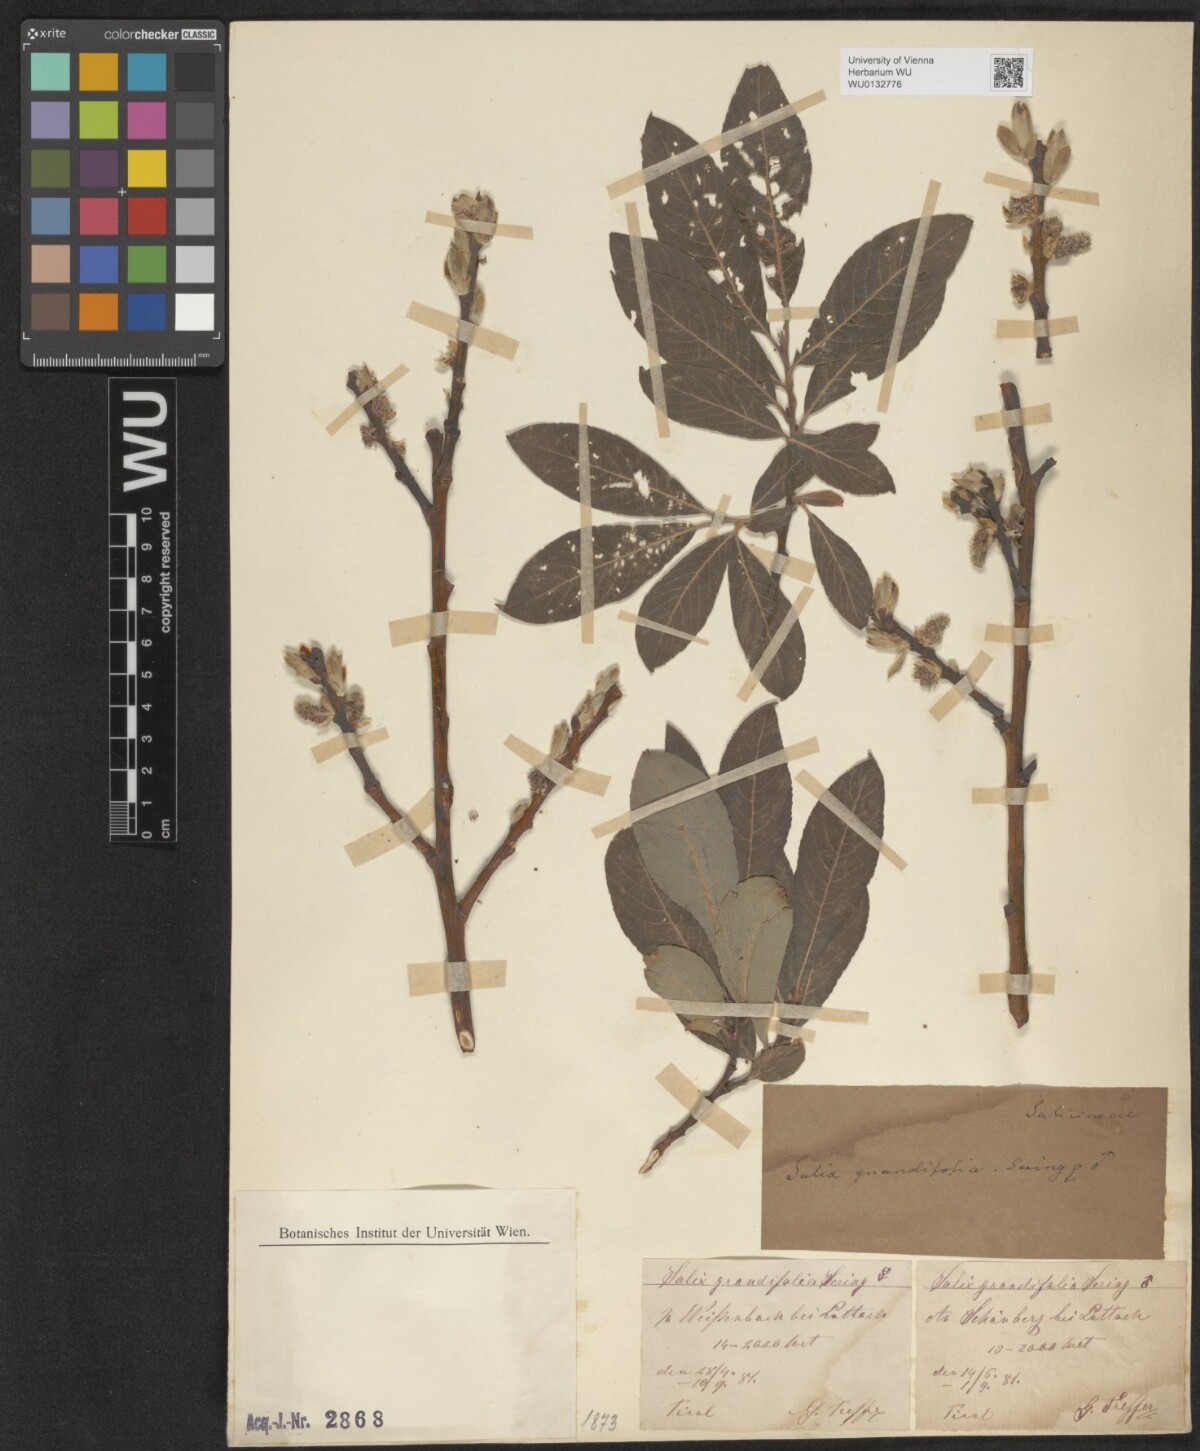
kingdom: Plantae
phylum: Tracheophyta
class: Magnoliopsida
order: Malpighiales
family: Salicaceae
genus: Salix
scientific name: Salix appendiculata
